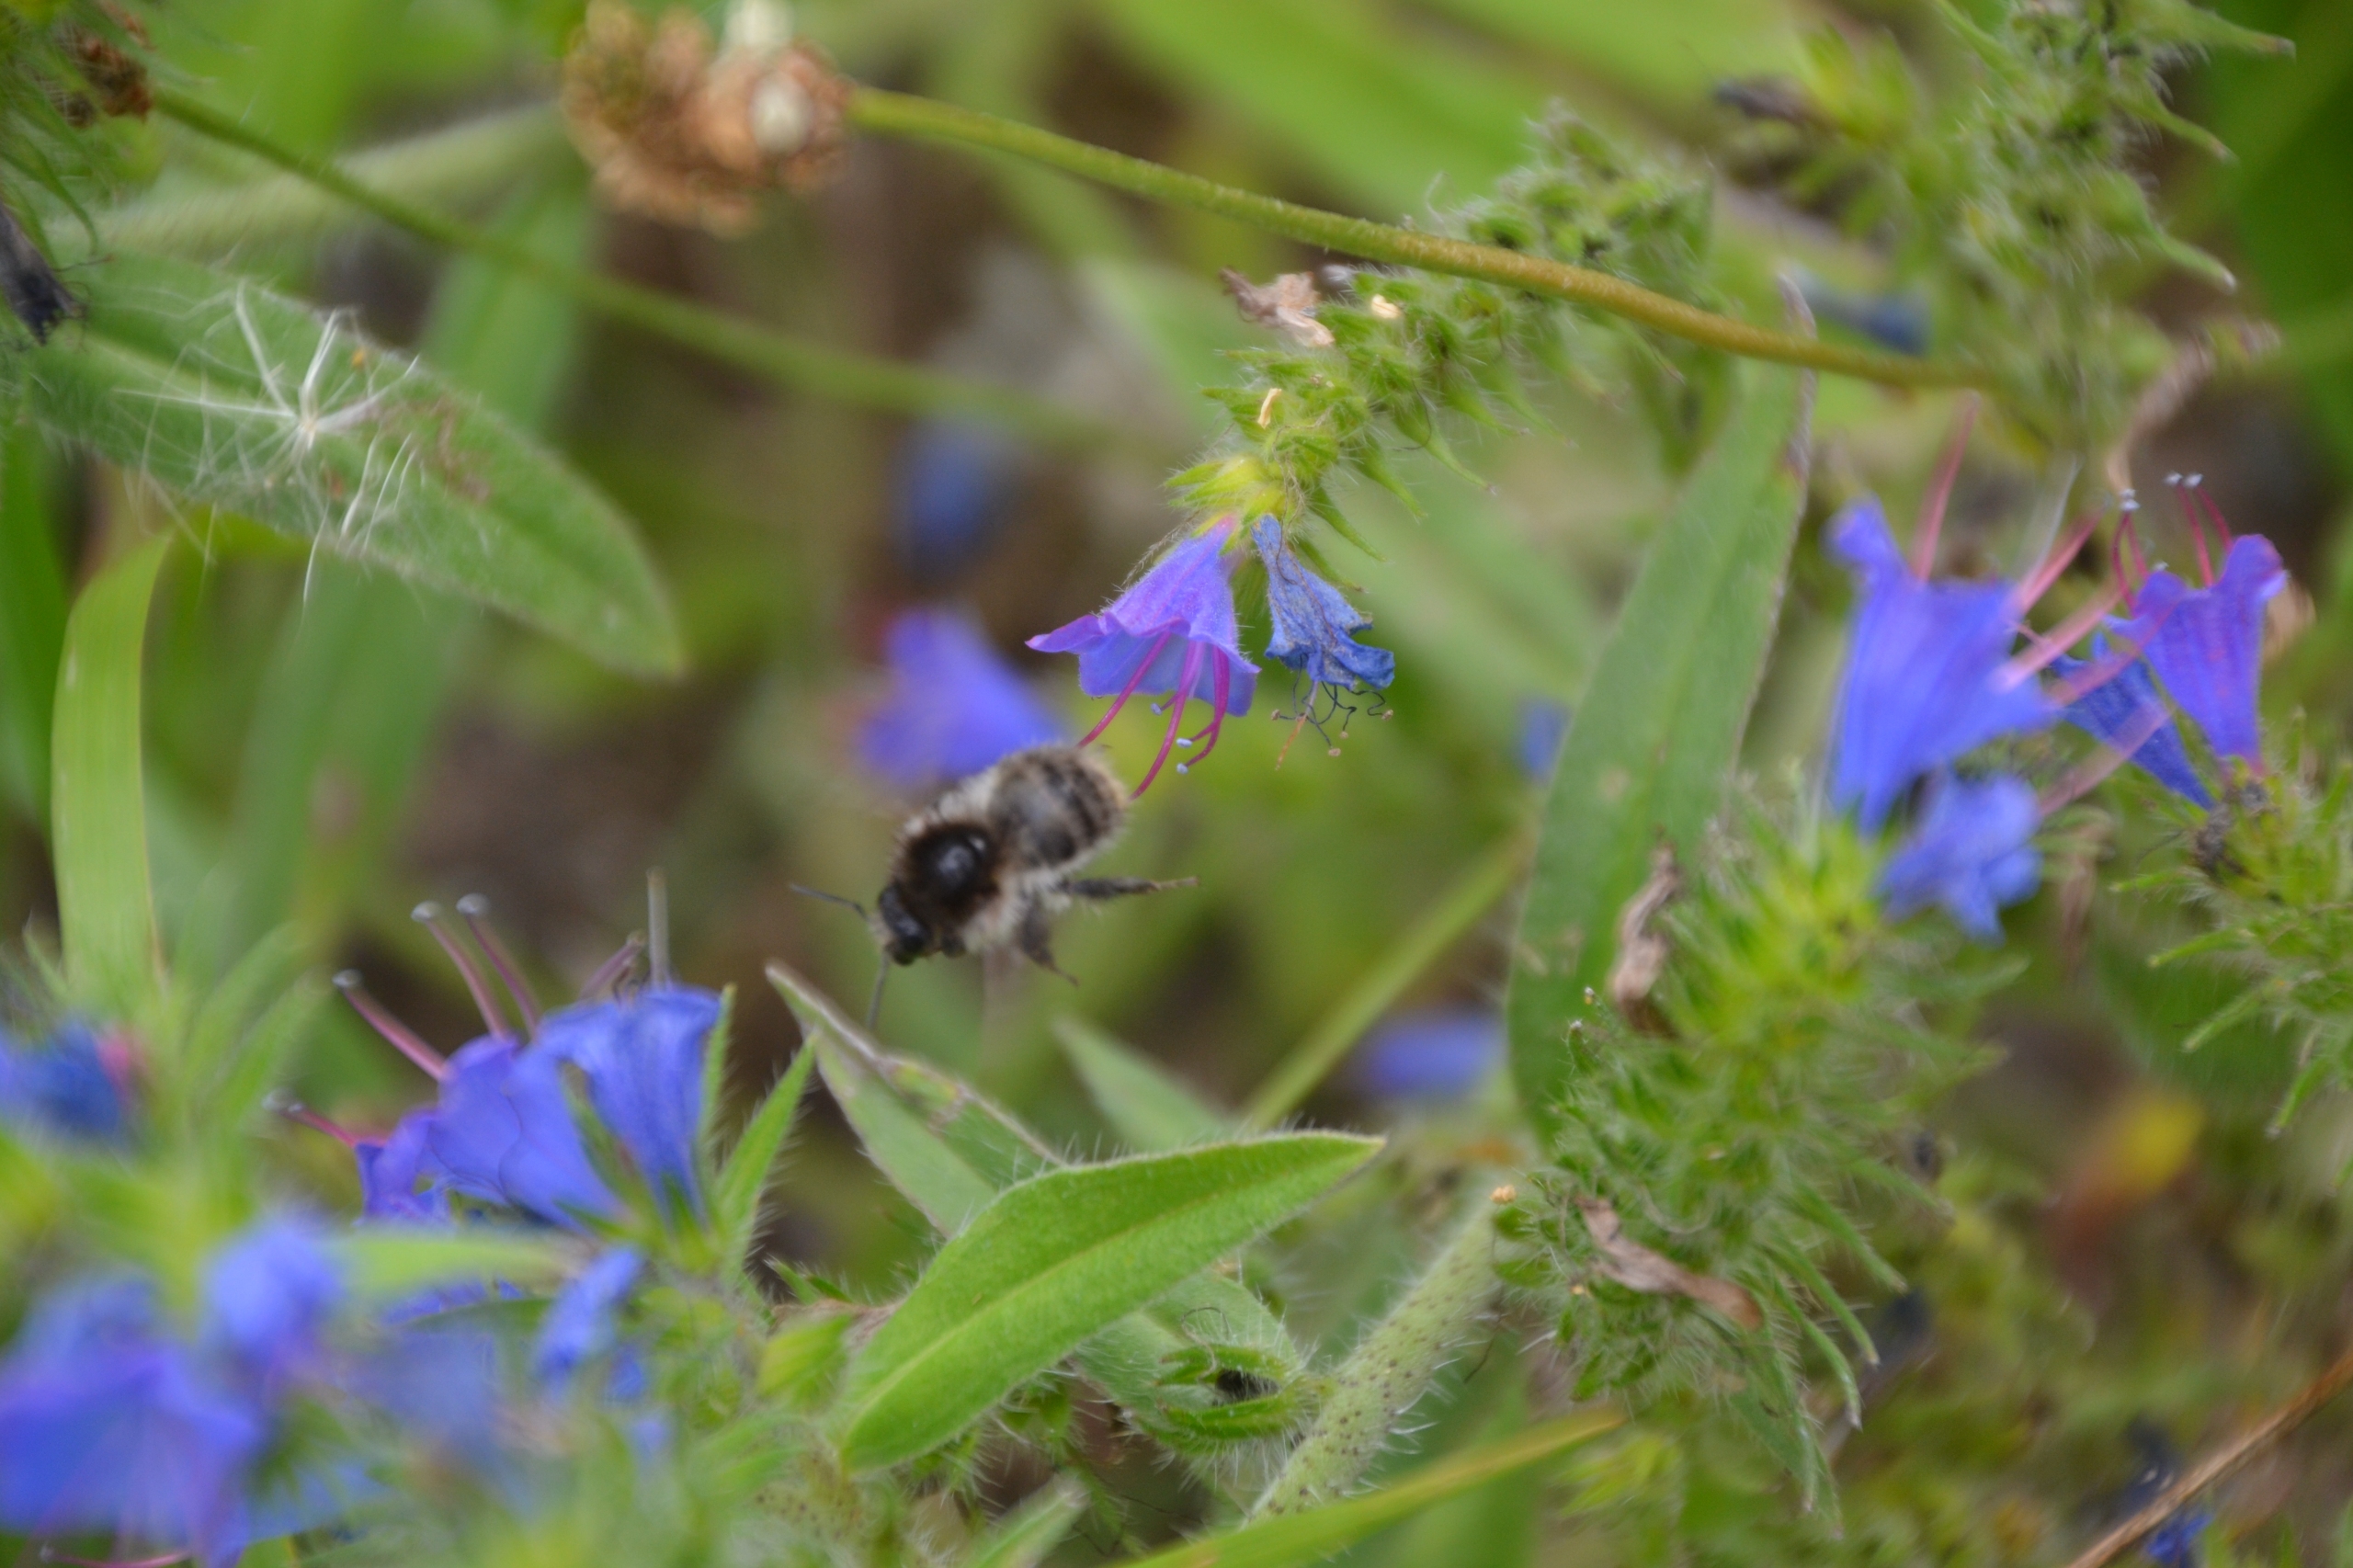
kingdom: Animalia
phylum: Arthropoda
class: Insecta
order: Hymenoptera
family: Apidae
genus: Bombus
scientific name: Bombus pascuorum
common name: Agerhumle
